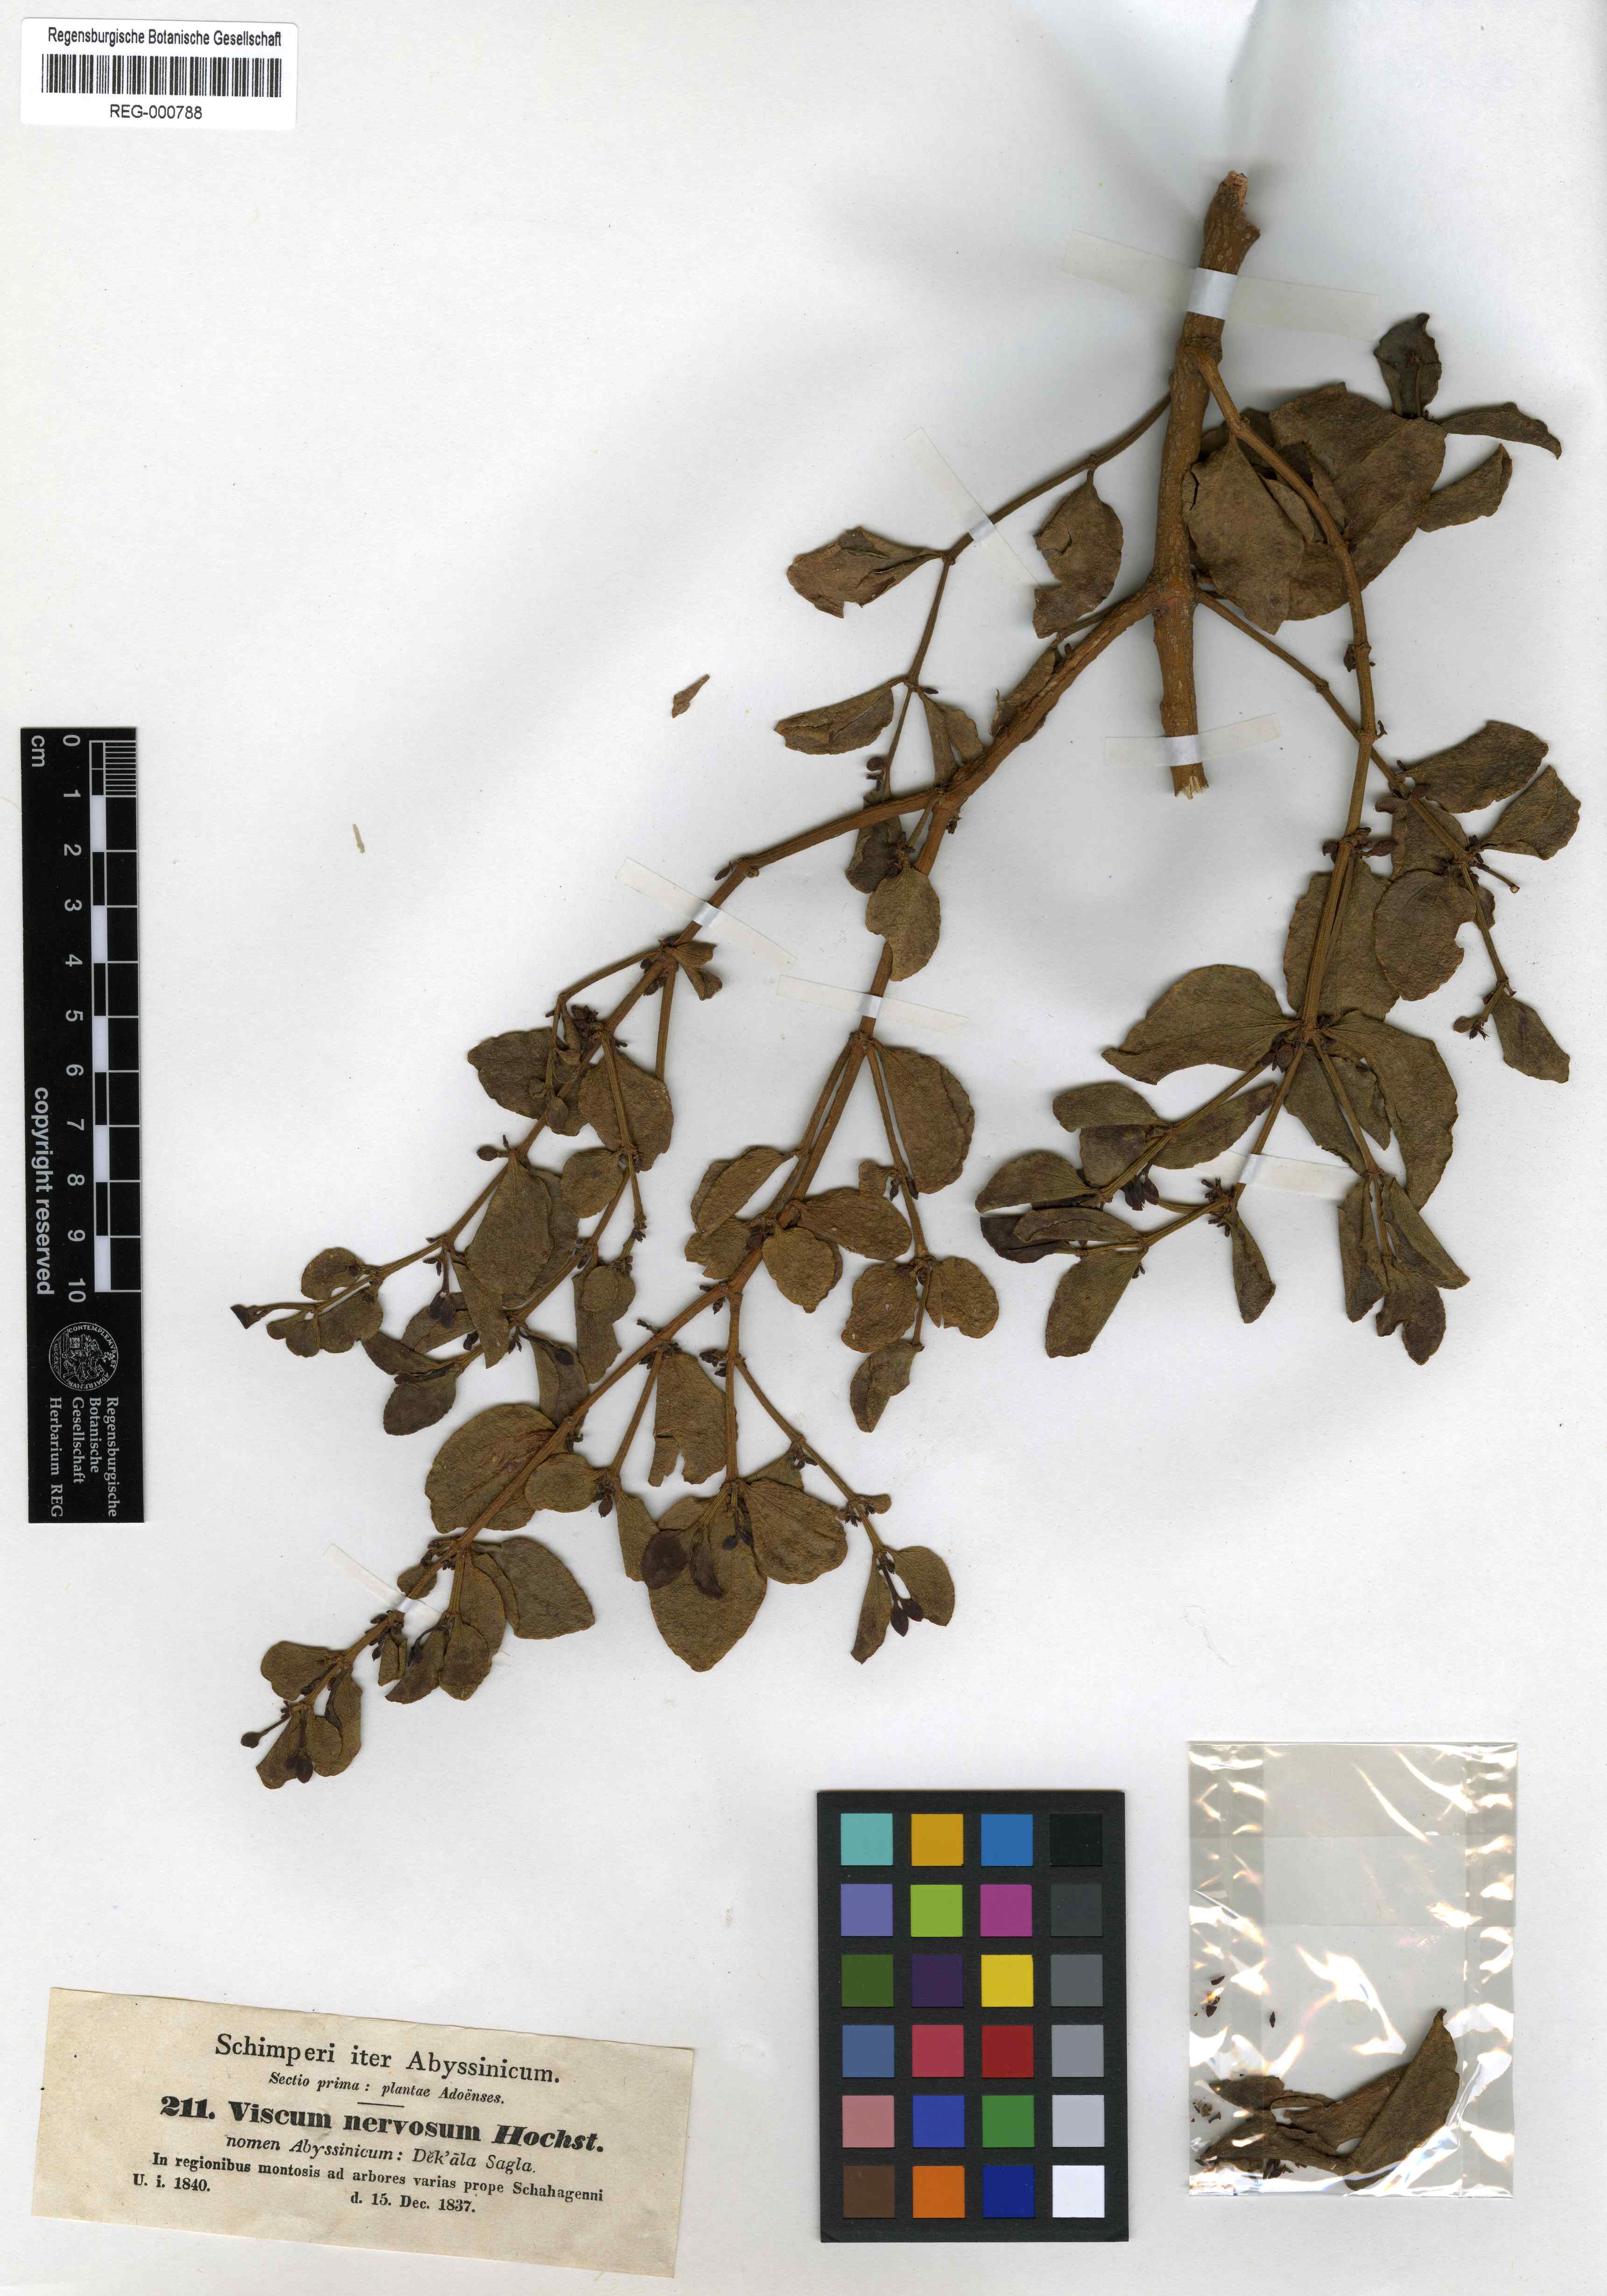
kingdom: Plantae
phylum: Tracheophyta
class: Magnoliopsida
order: Santalales
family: Viscaceae
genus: Viscum
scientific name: Viscum triflorum
